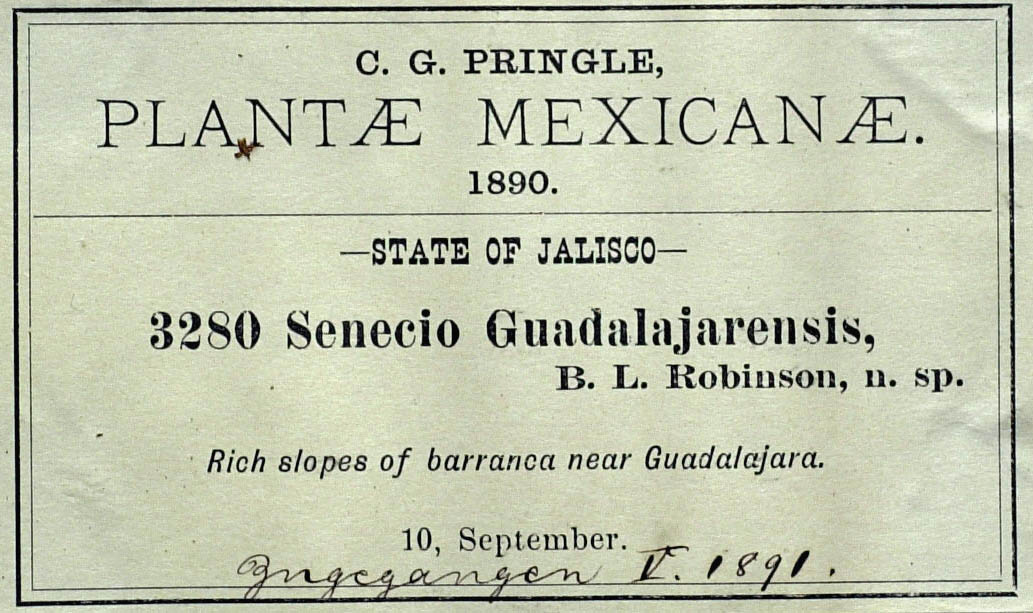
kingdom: Plantae
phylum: Tracheophyta
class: Magnoliopsida
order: Asterales
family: Asteraceae
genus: Roldana
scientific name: Roldana guadalajarensis
